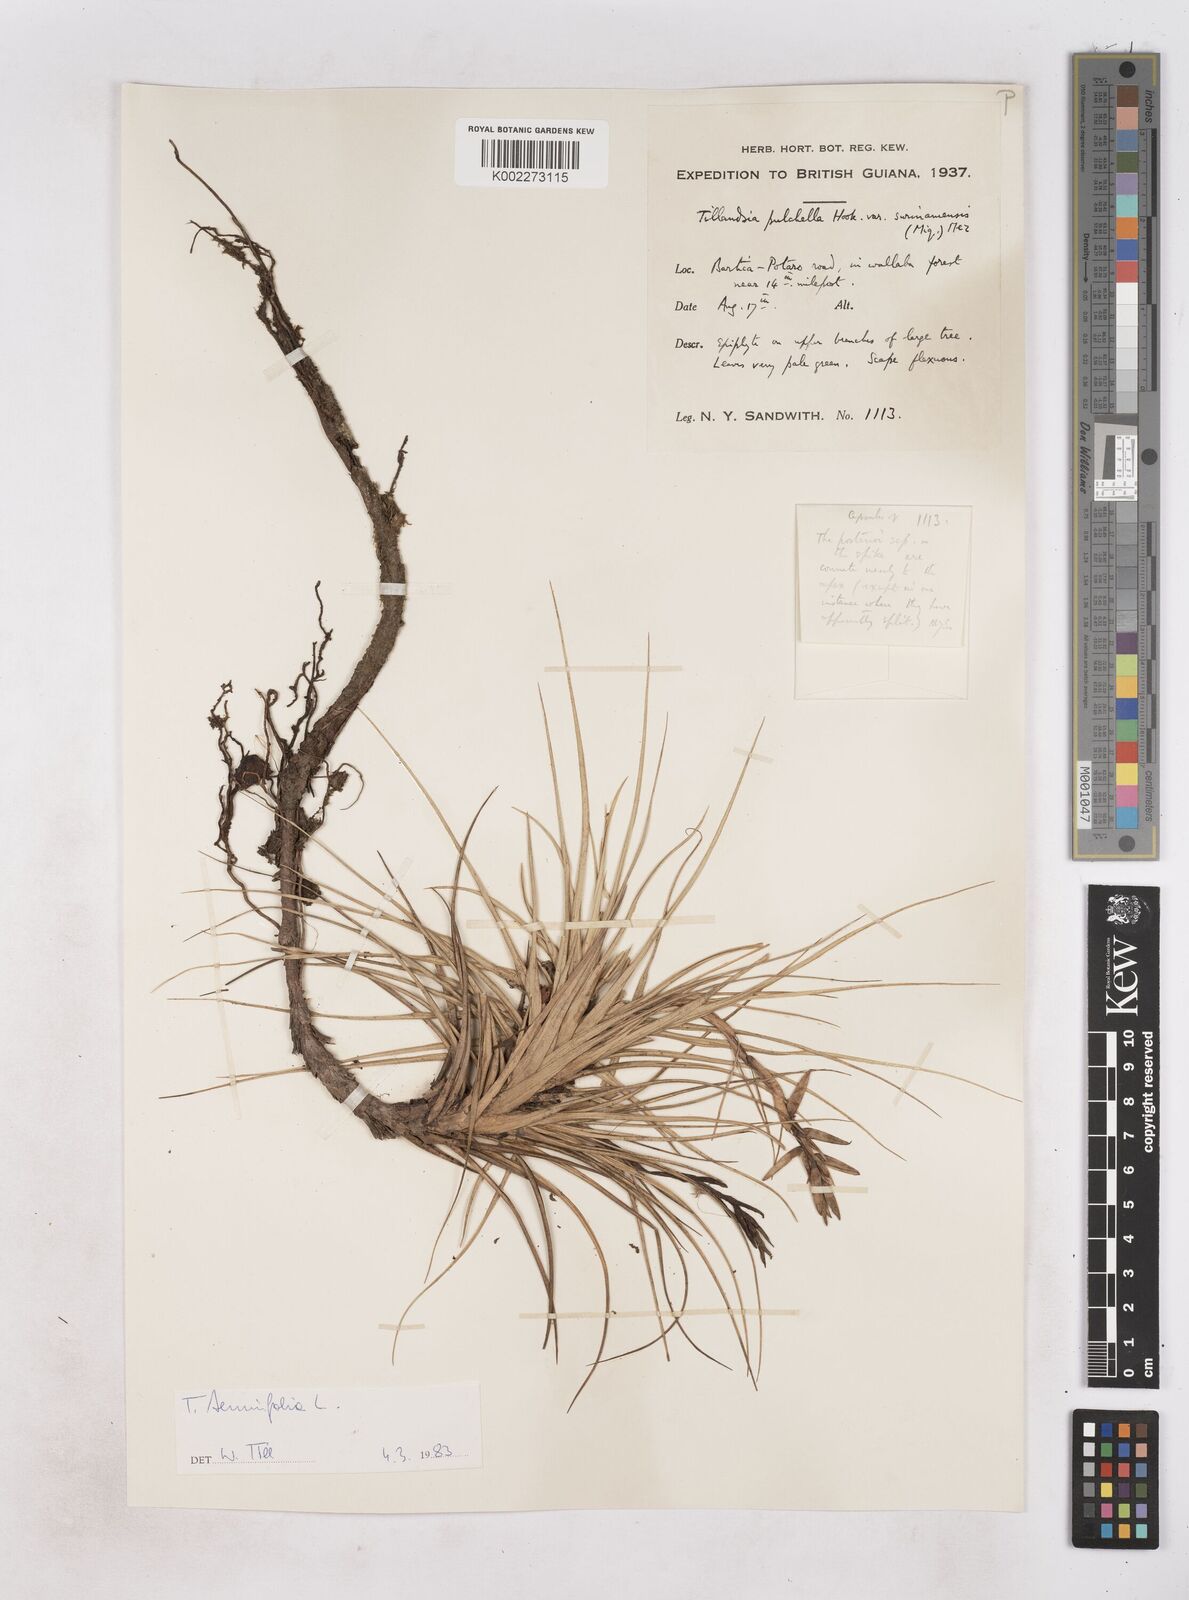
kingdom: Plantae
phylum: Tracheophyta
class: Liliopsida
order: Poales
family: Bromeliaceae
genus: Tillandsia
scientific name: Tillandsia tenuifolia
